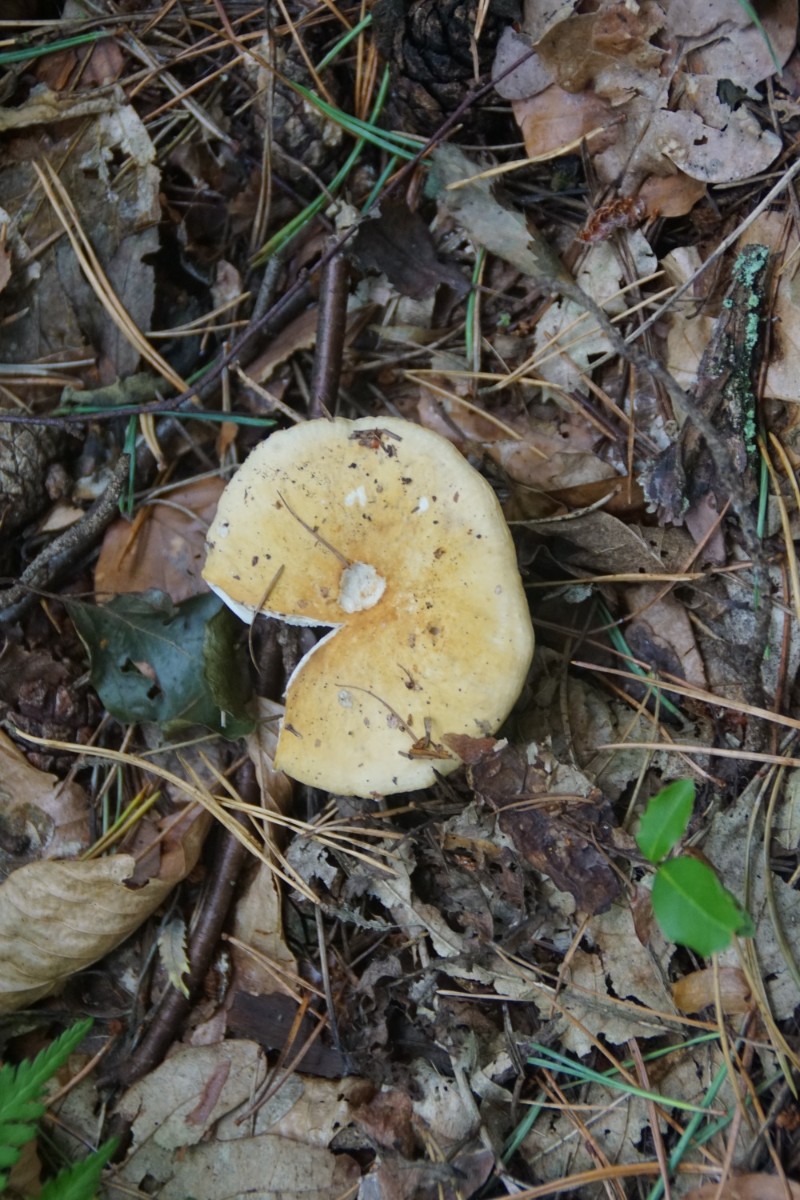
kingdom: Fungi
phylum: Basidiomycota
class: Agaricomycetes
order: Russulales
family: Russulaceae
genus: Russula
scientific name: Russula ochroleuca
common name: okkergul skørhat
